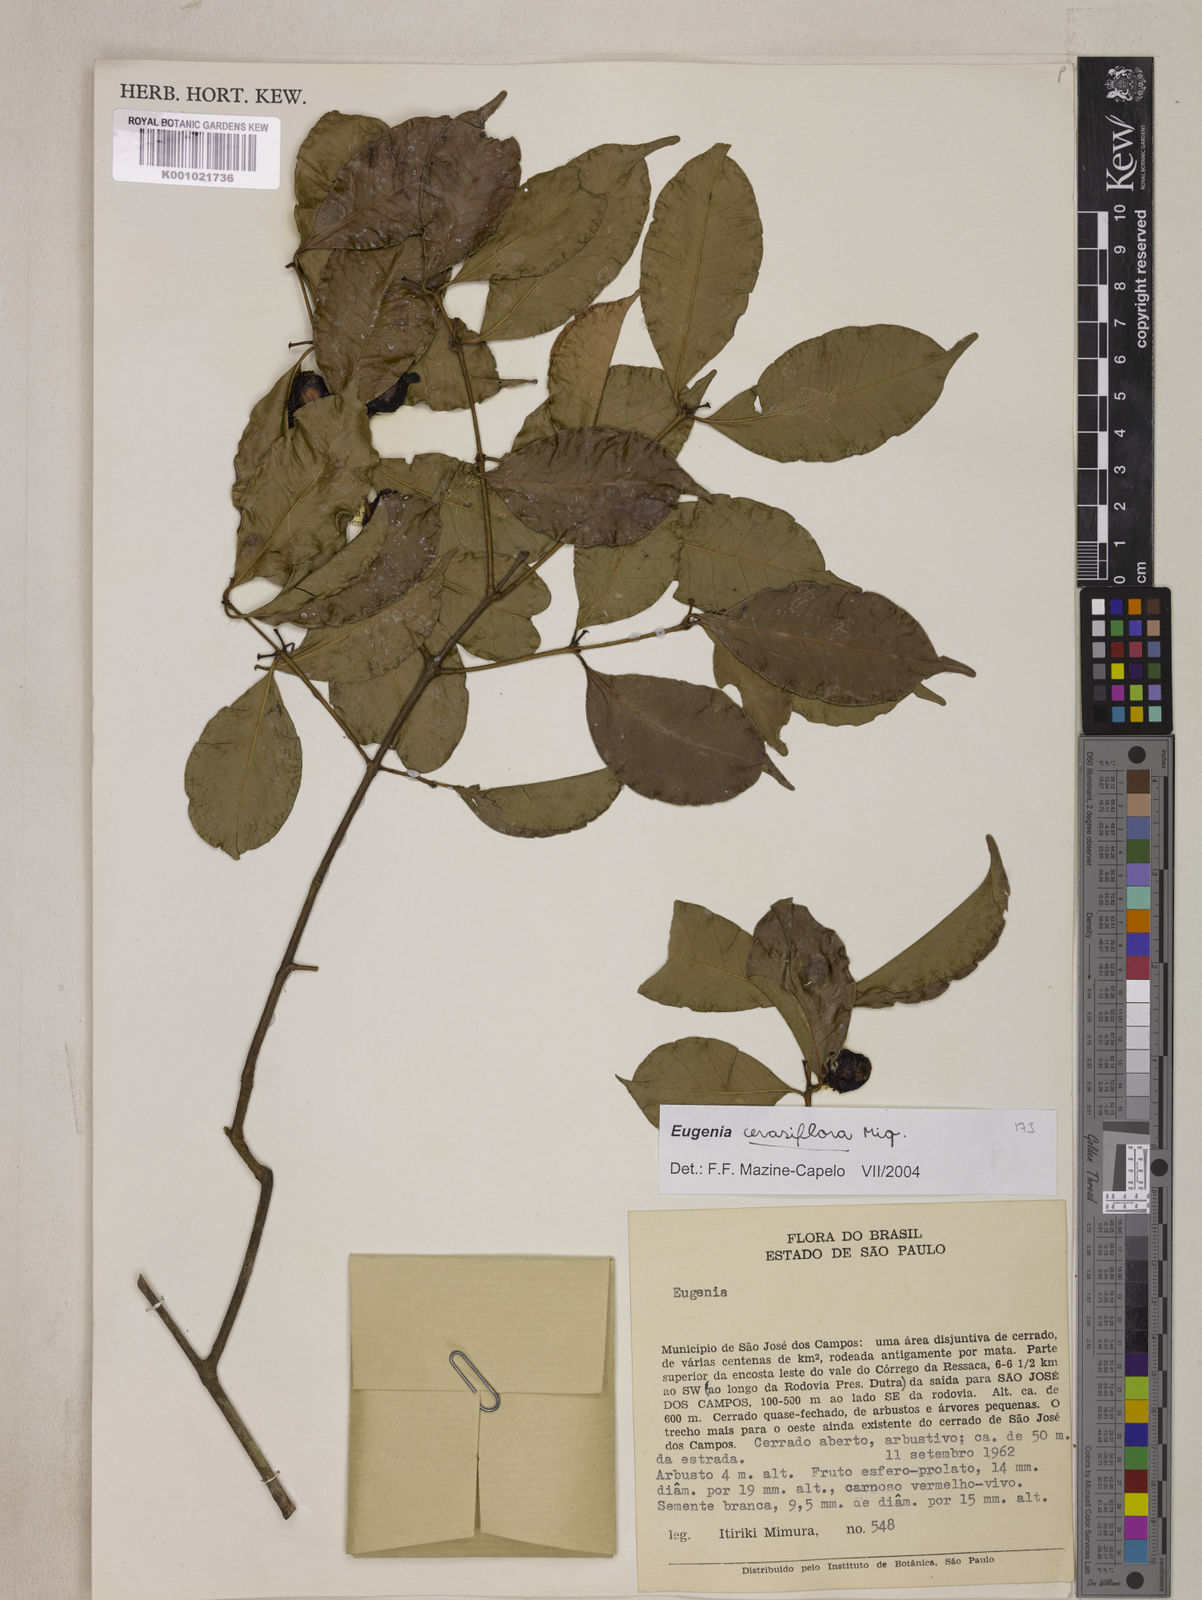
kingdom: Plantae
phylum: Tracheophyta
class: Magnoliopsida
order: Myrtales
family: Myrtaceae
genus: Eugenia
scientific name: Eugenia cerasiflora
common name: Cherry-of-the-rio-grande
